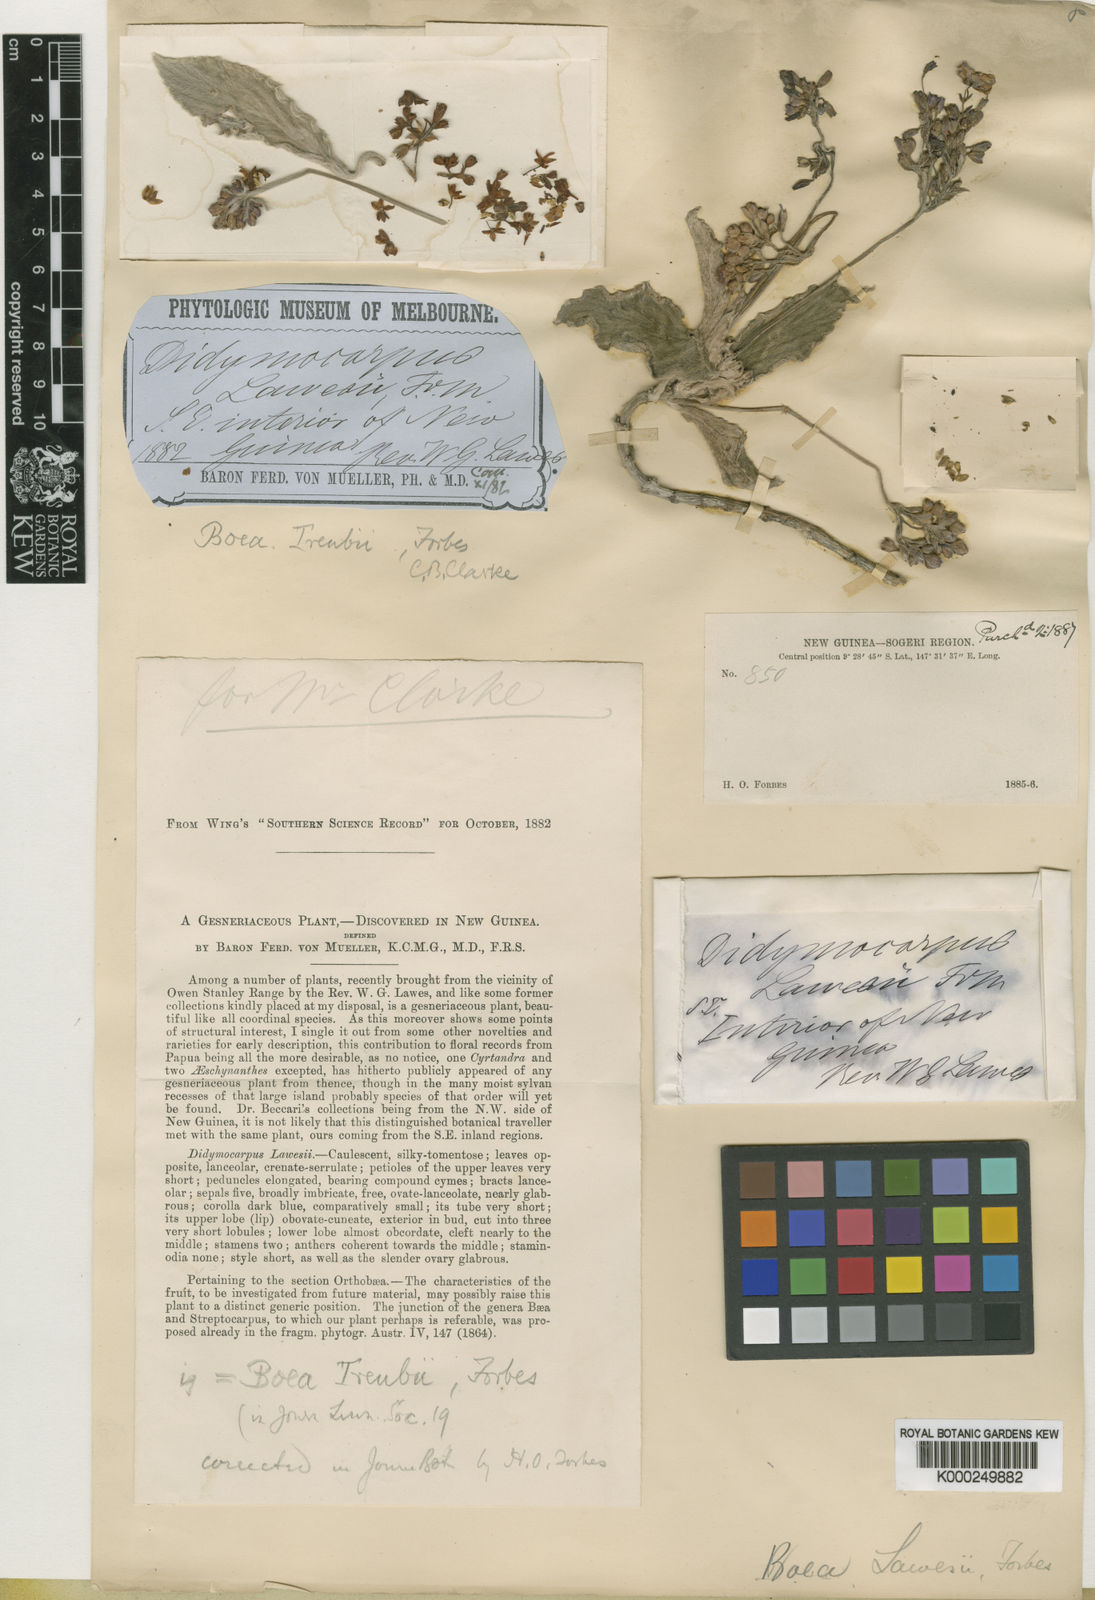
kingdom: Plantae
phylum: Tracheophyta
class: Magnoliopsida
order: Lamiales
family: Gesneriaceae
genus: Boea
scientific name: Boea
